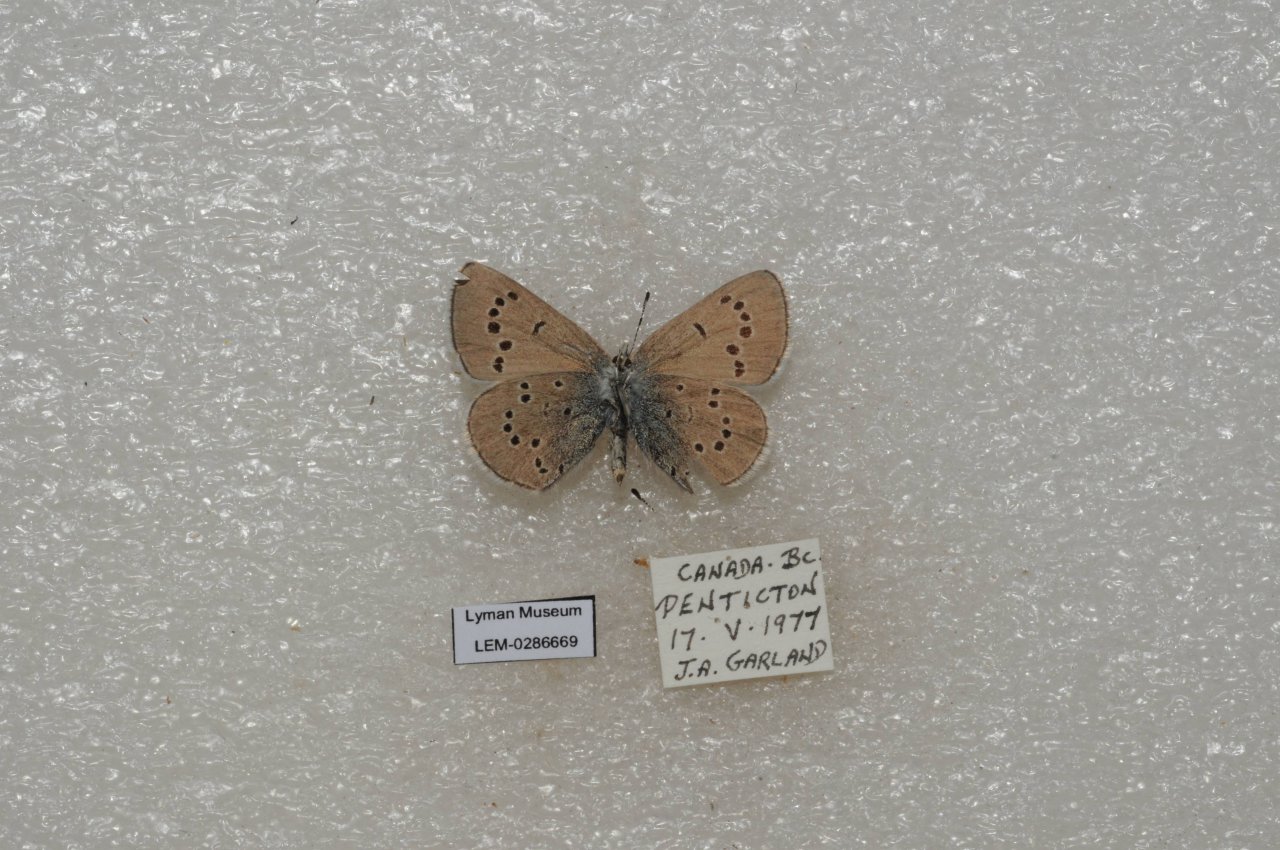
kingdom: Animalia
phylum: Arthropoda
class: Insecta
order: Lepidoptera
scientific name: Lepidoptera
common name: Butterflies
